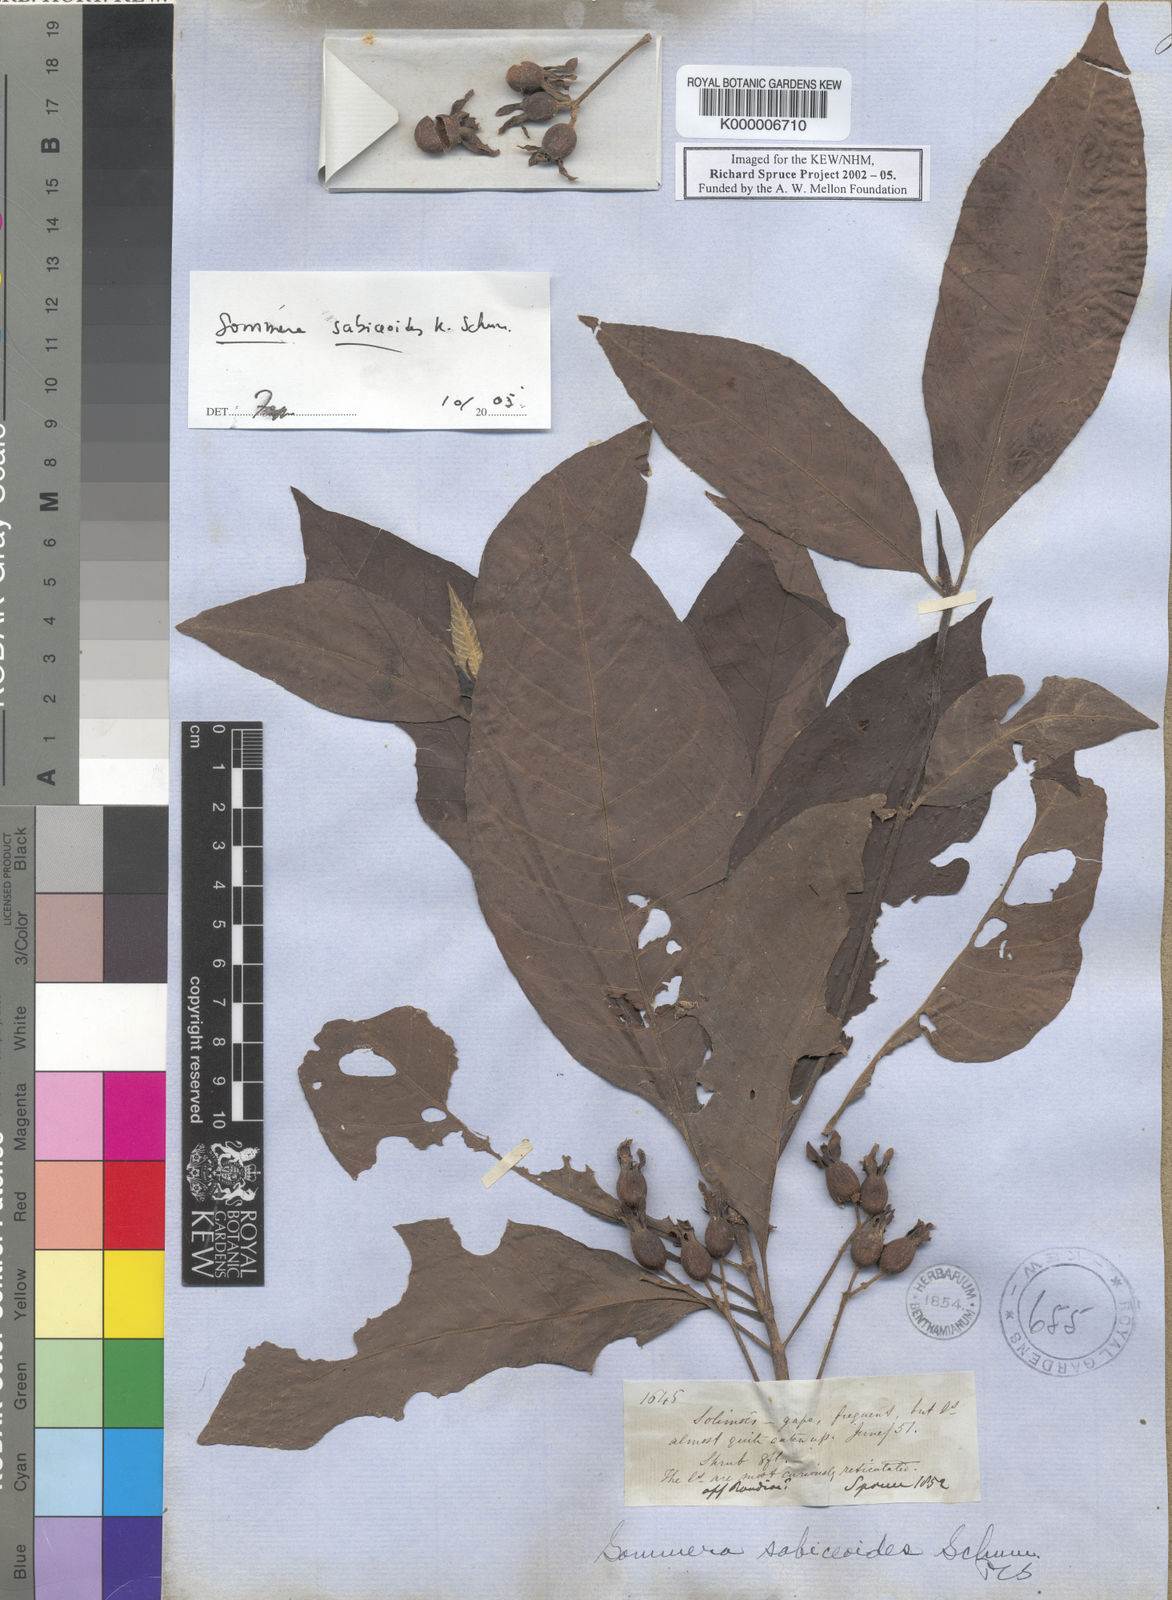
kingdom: Plantae
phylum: Tracheophyta
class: Magnoliopsida
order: Gentianales
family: Rubiaceae
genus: Sommera
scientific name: Sommera sabiceoides
